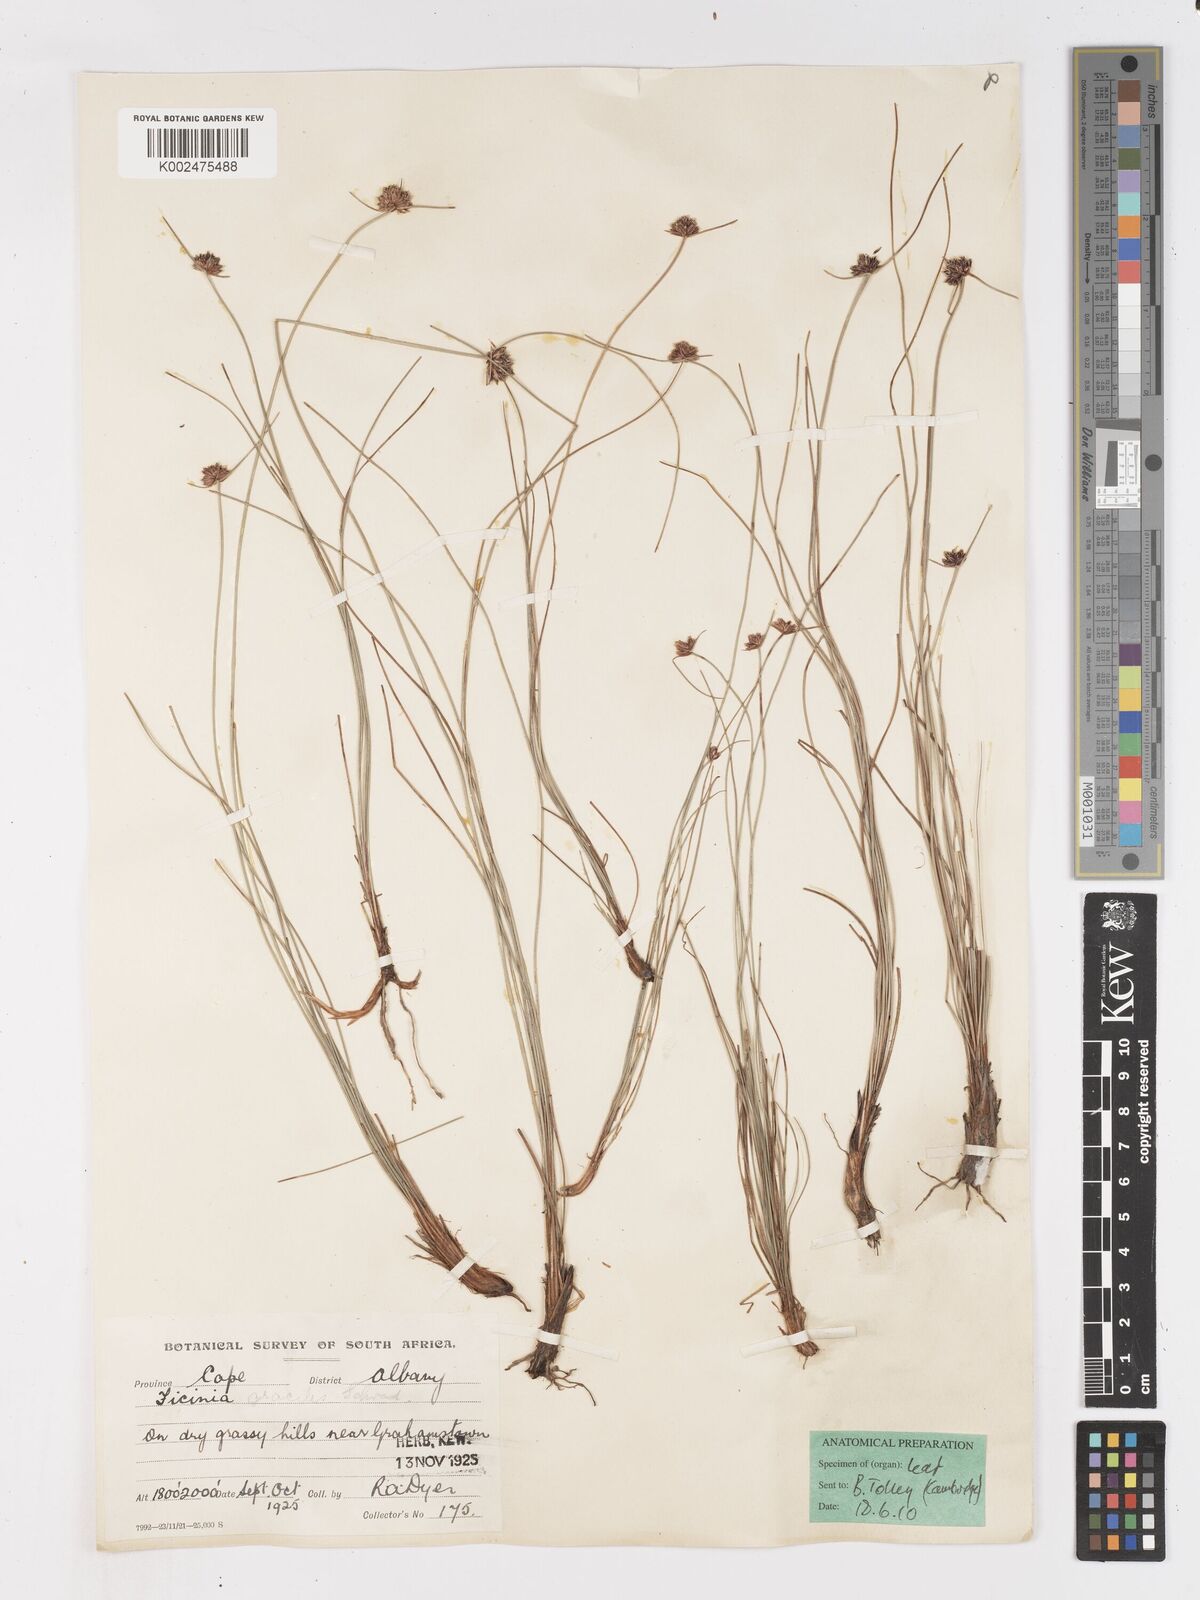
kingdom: Plantae
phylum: Tracheophyta
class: Liliopsida
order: Poales
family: Cyperaceae
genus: Ficinia
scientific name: Ficinia gracilis
